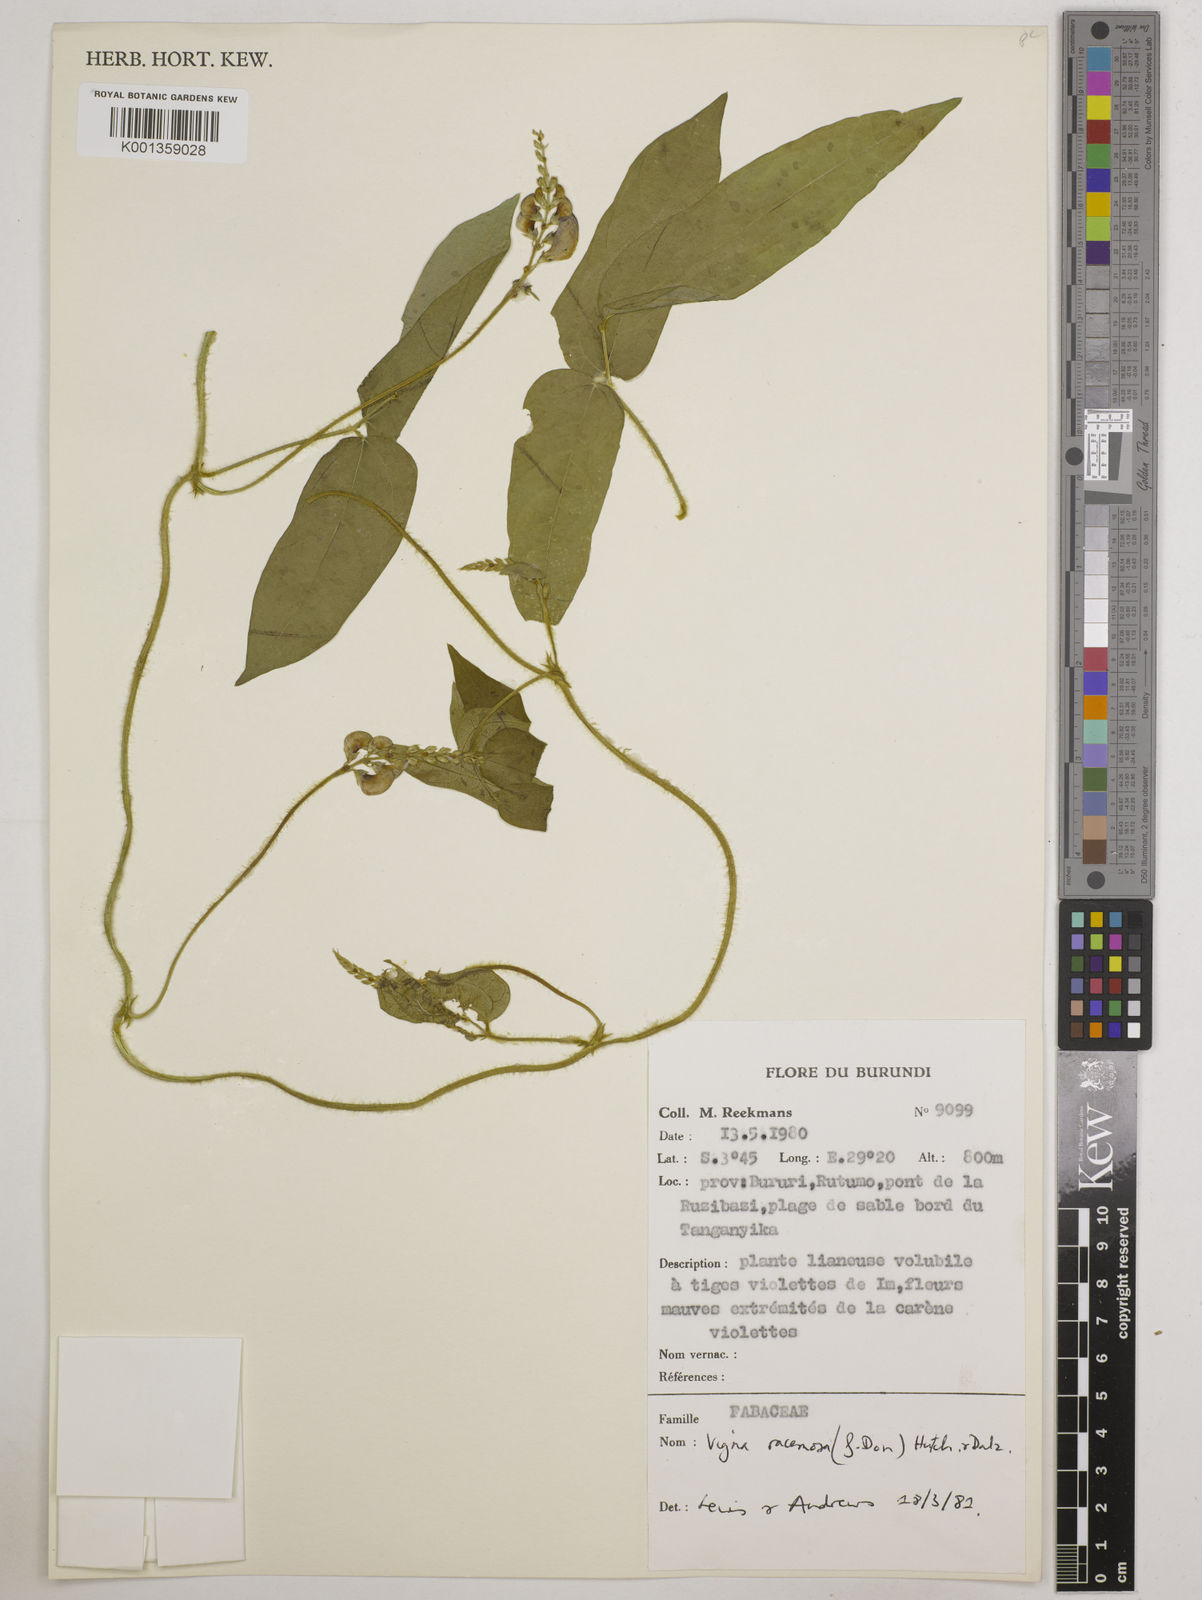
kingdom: Plantae
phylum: Tracheophyta
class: Magnoliopsida
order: Fabales
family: Fabaceae
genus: Vigna
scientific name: Vigna racemosa
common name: Beans not eaten
